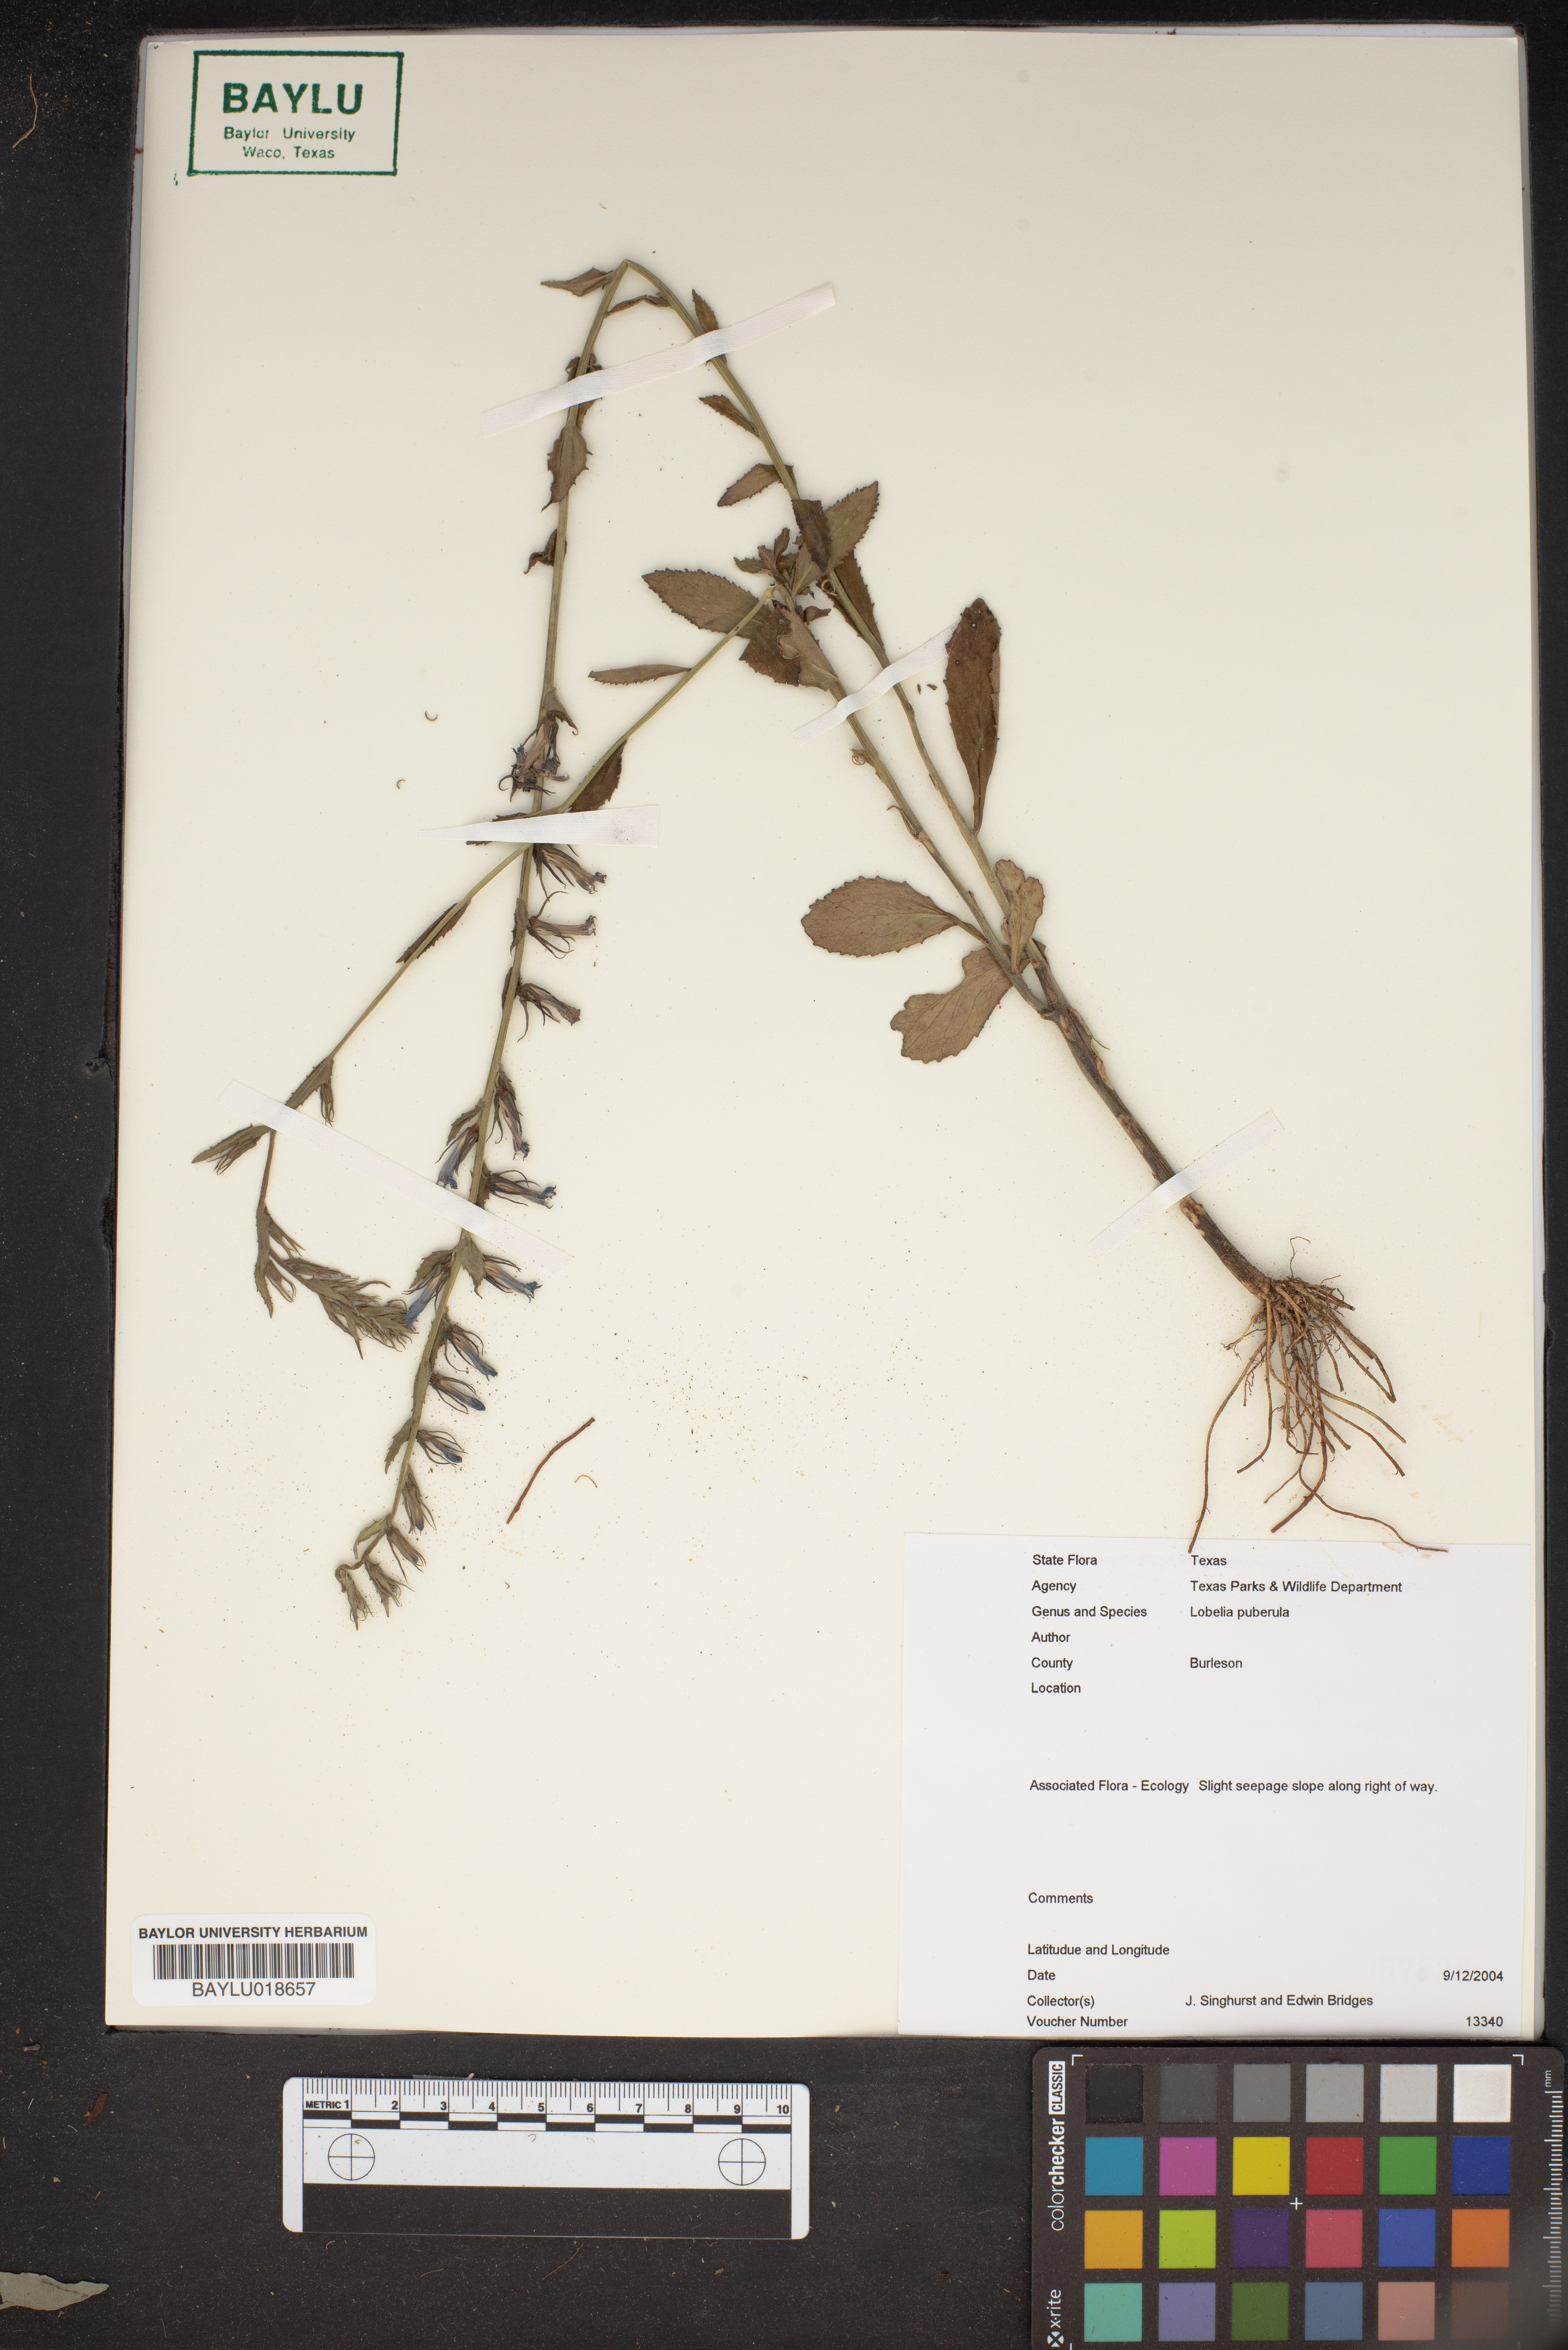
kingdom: Plantae
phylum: Tracheophyta
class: Magnoliopsida
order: Asterales
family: Campanulaceae
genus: Lobelia
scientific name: Lobelia puberula
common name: Purple dewdrop
